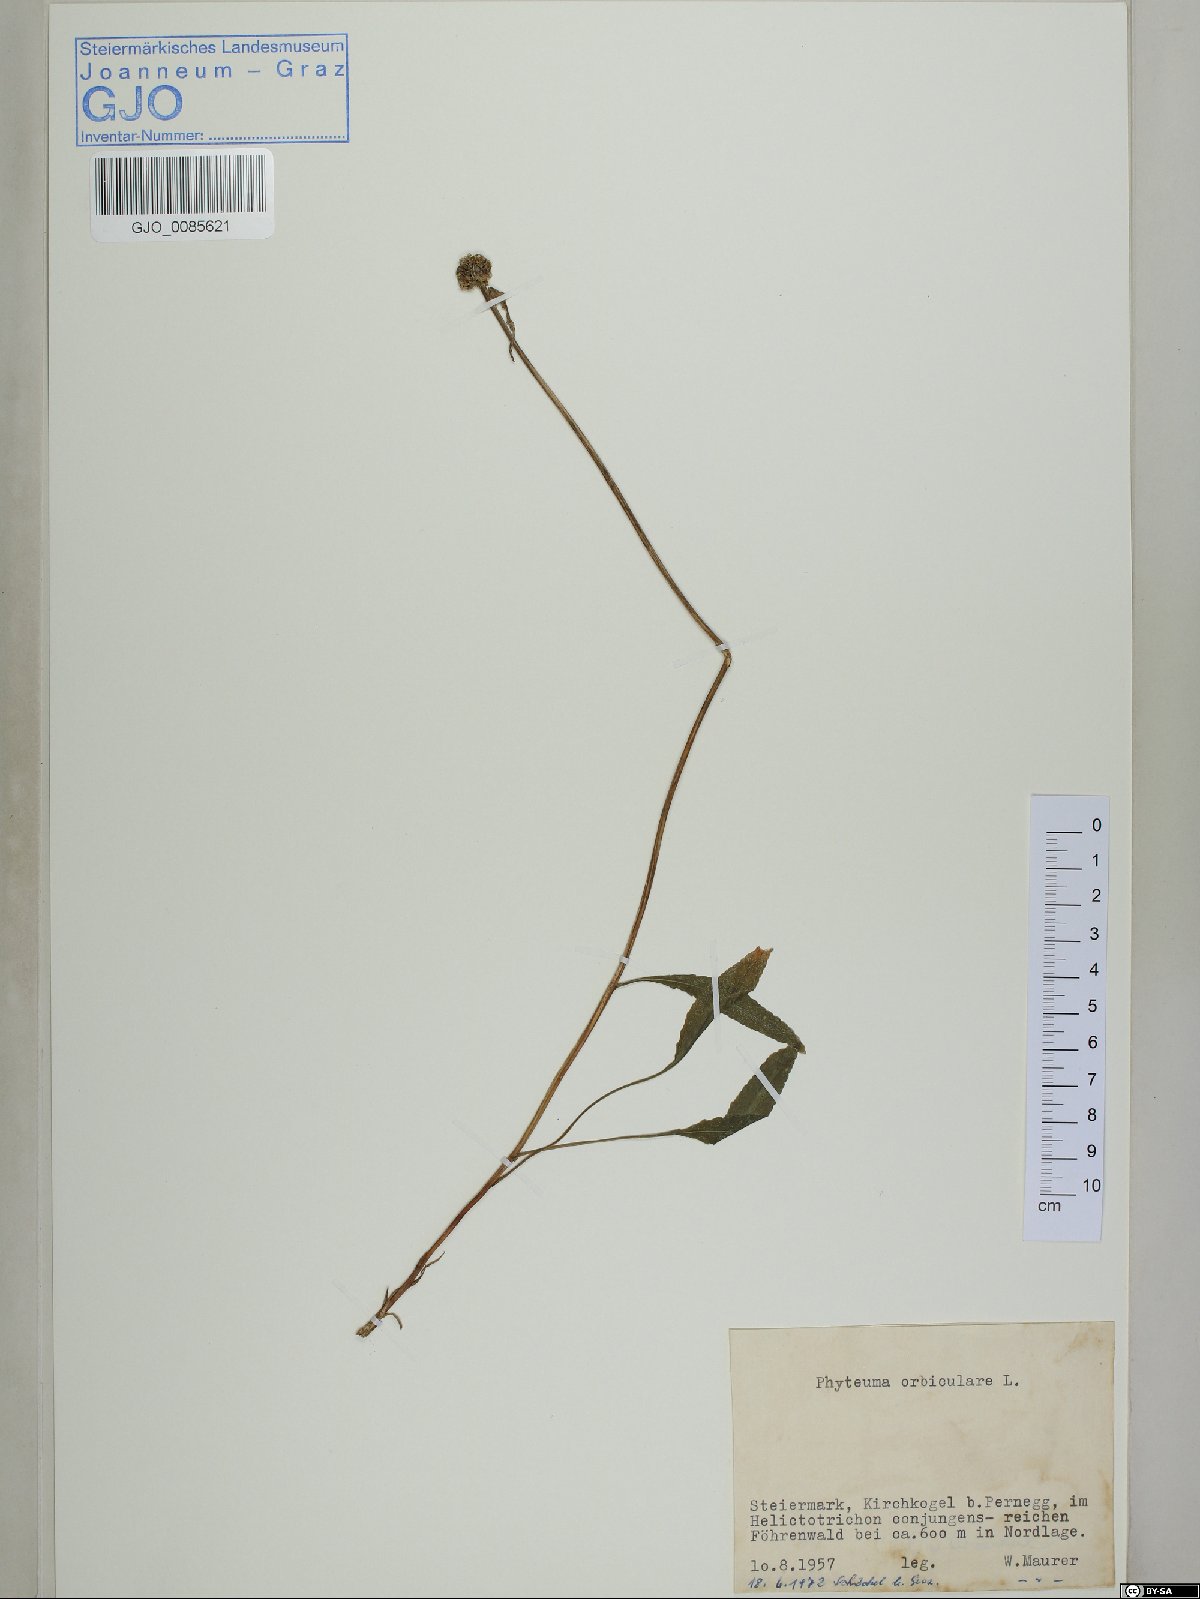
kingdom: Plantae
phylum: Tracheophyta
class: Magnoliopsida
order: Asterales
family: Campanulaceae
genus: Phyteuma
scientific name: Phyteuma orbiculare
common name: Round-headed rampion
